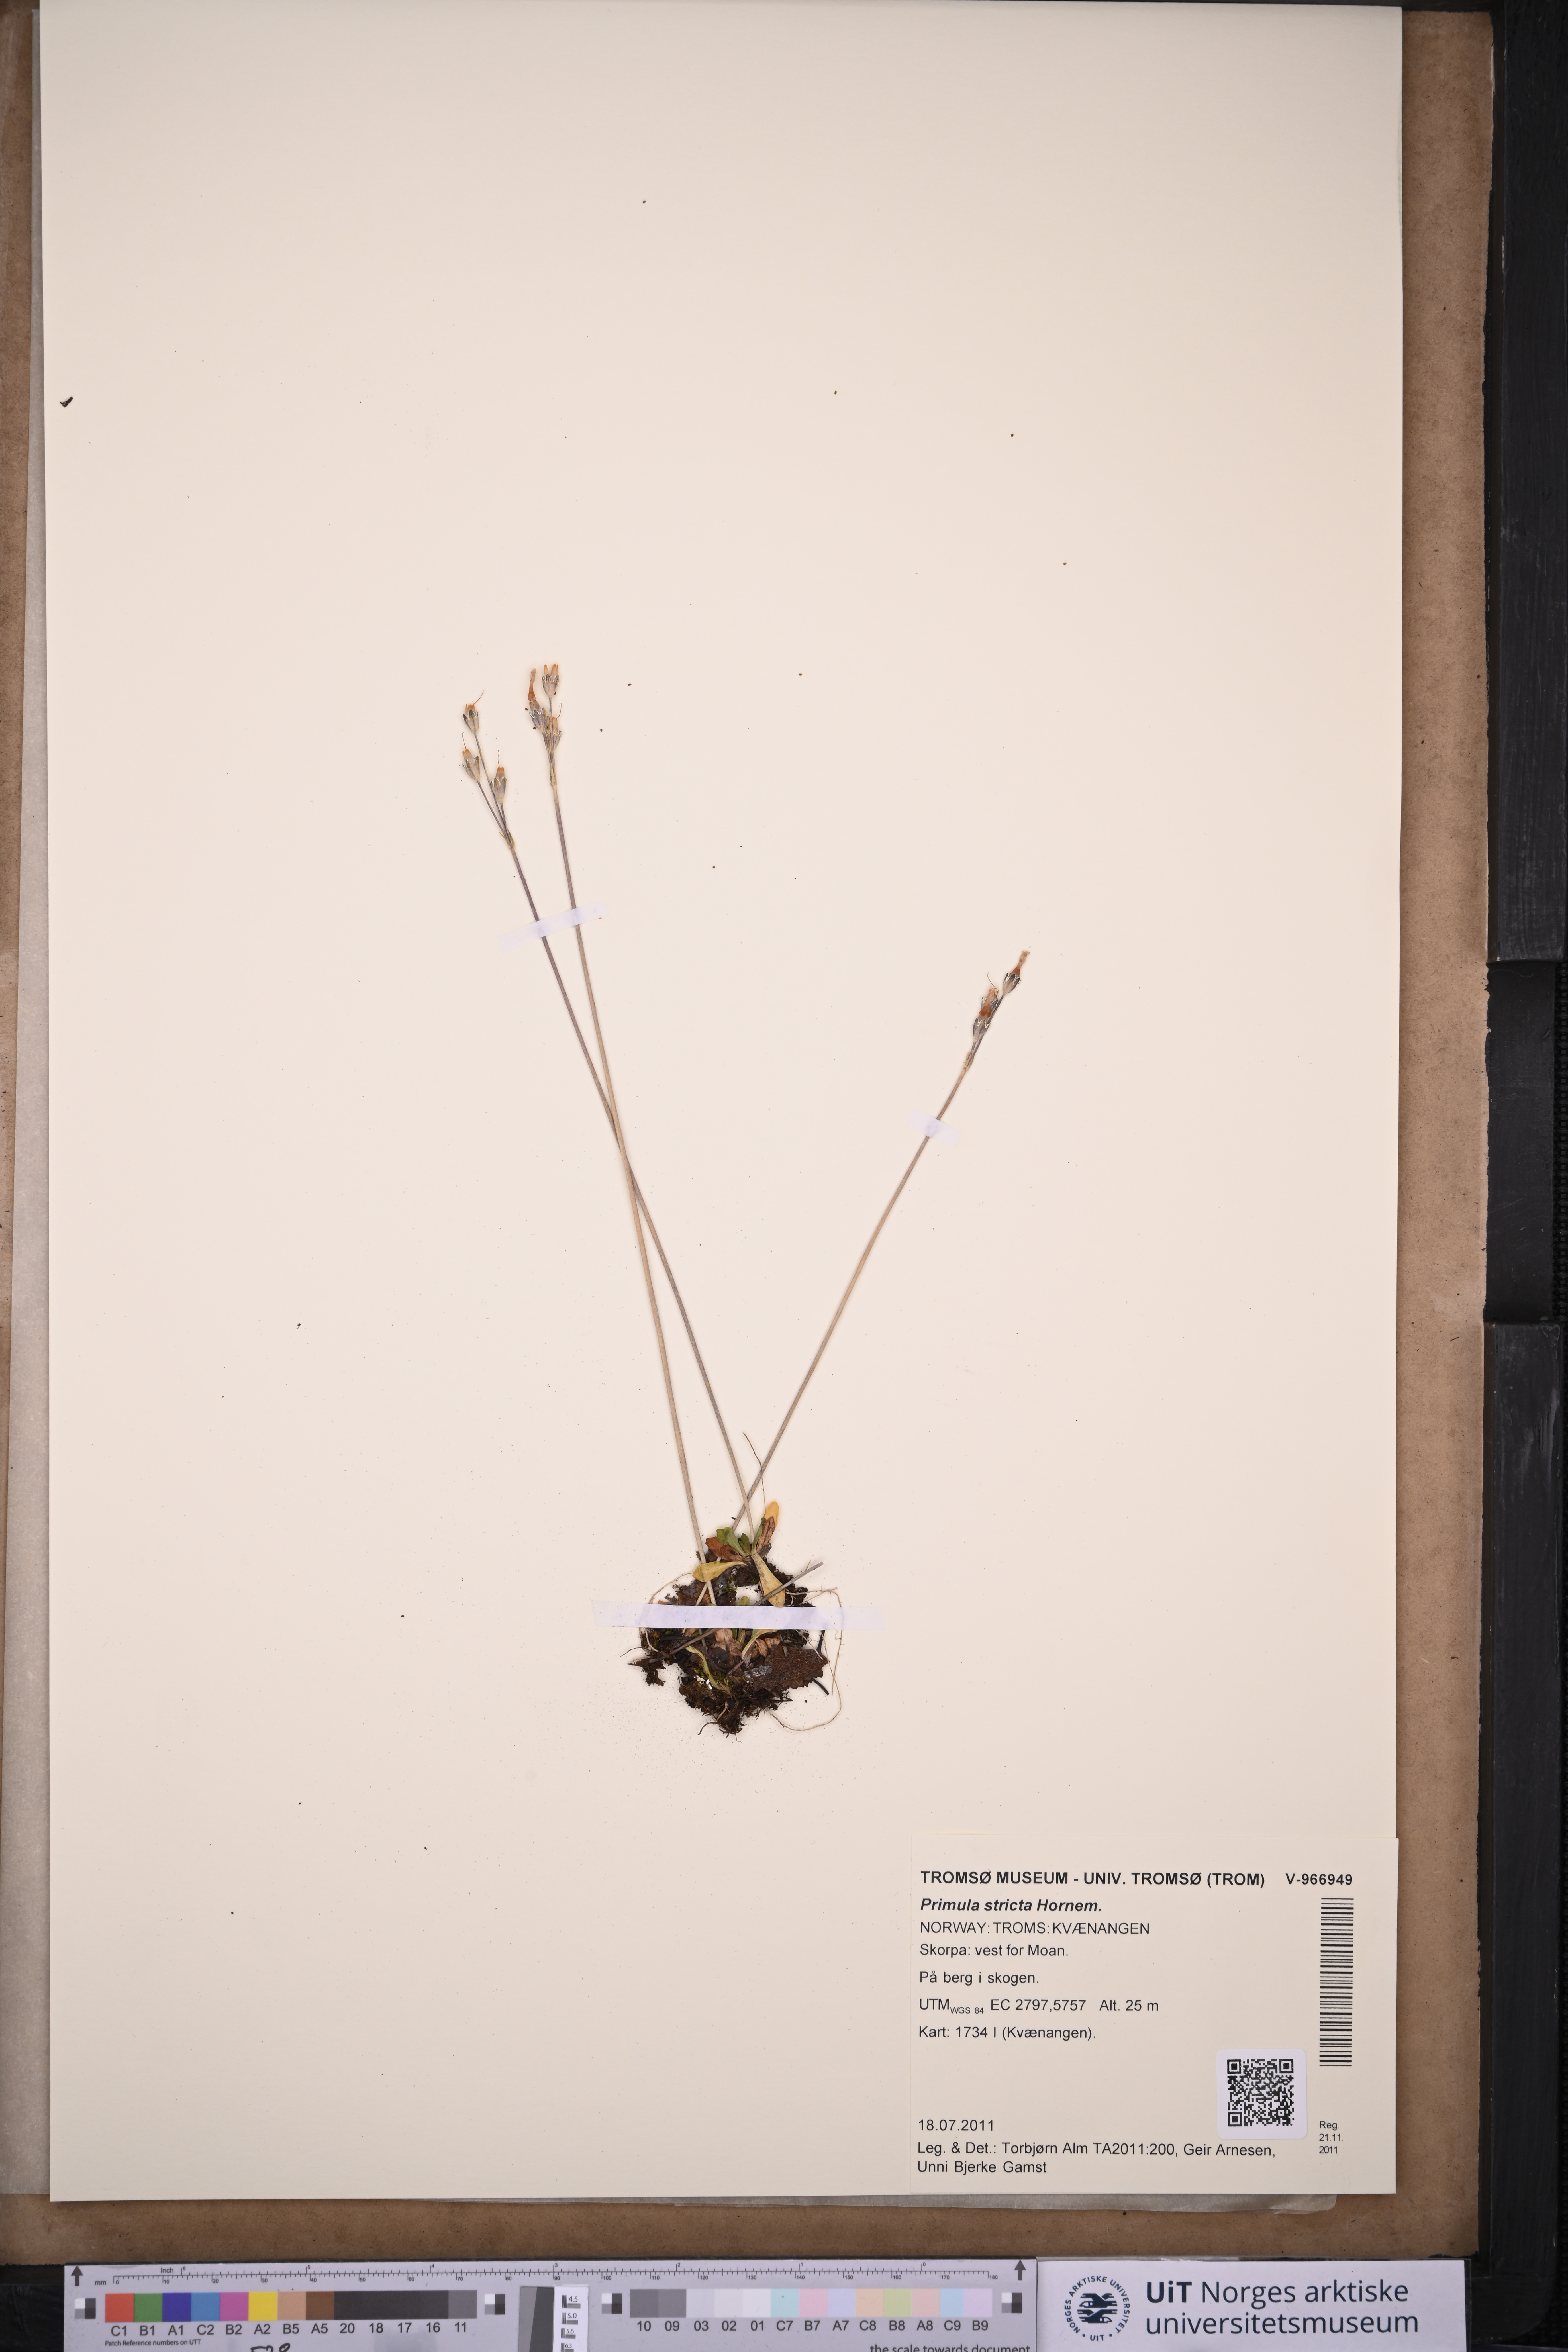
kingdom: Plantae
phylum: Tracheophyta
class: Magnoliopsida
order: Ericales
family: Primulaceae
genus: Primula
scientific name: Primula stricta
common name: Coastal primrose
